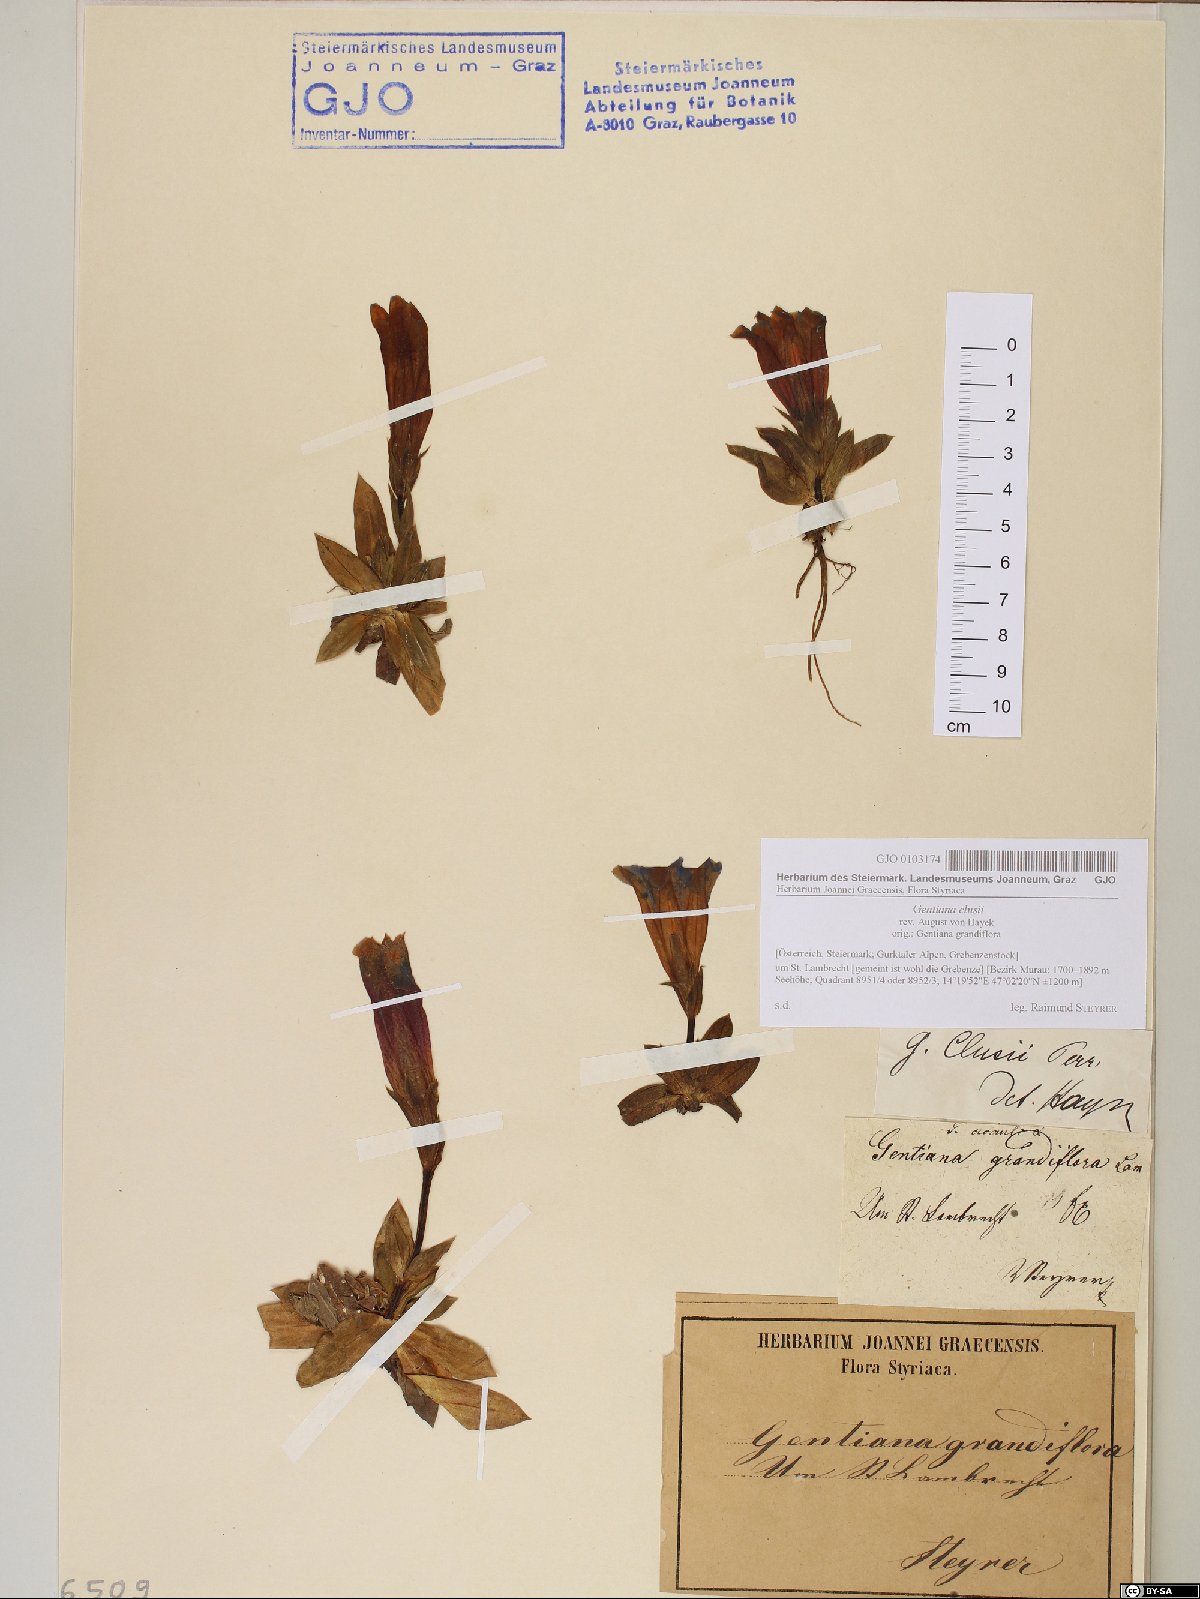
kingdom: Plantae
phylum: Tracheophyta
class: Magnoliopsida
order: Gentianales
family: Gentianaceae
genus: Gentiana
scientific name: Gentiana clusii
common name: Trumpet gentian
